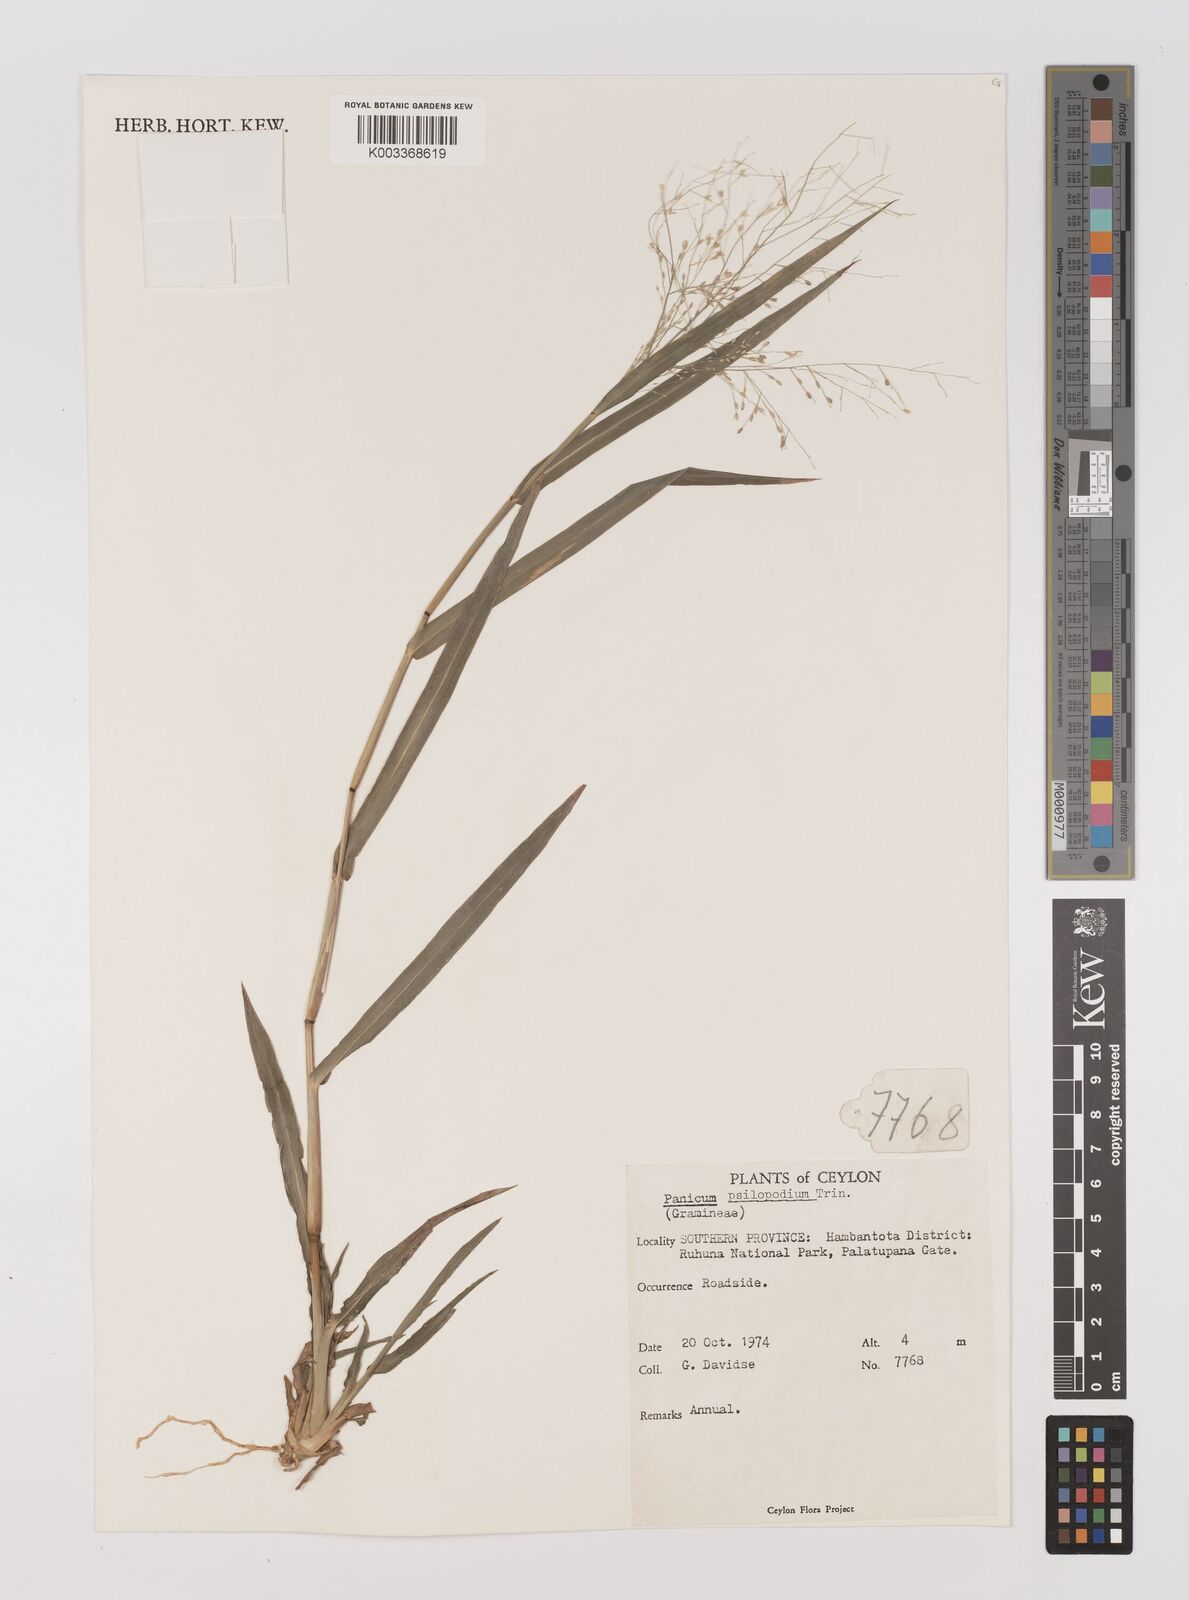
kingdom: Plantae
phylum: Tracheophyta
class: Liliopsida
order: Poales
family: Poaceae
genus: Panicum
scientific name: Panicum sumatrense
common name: Little millet
